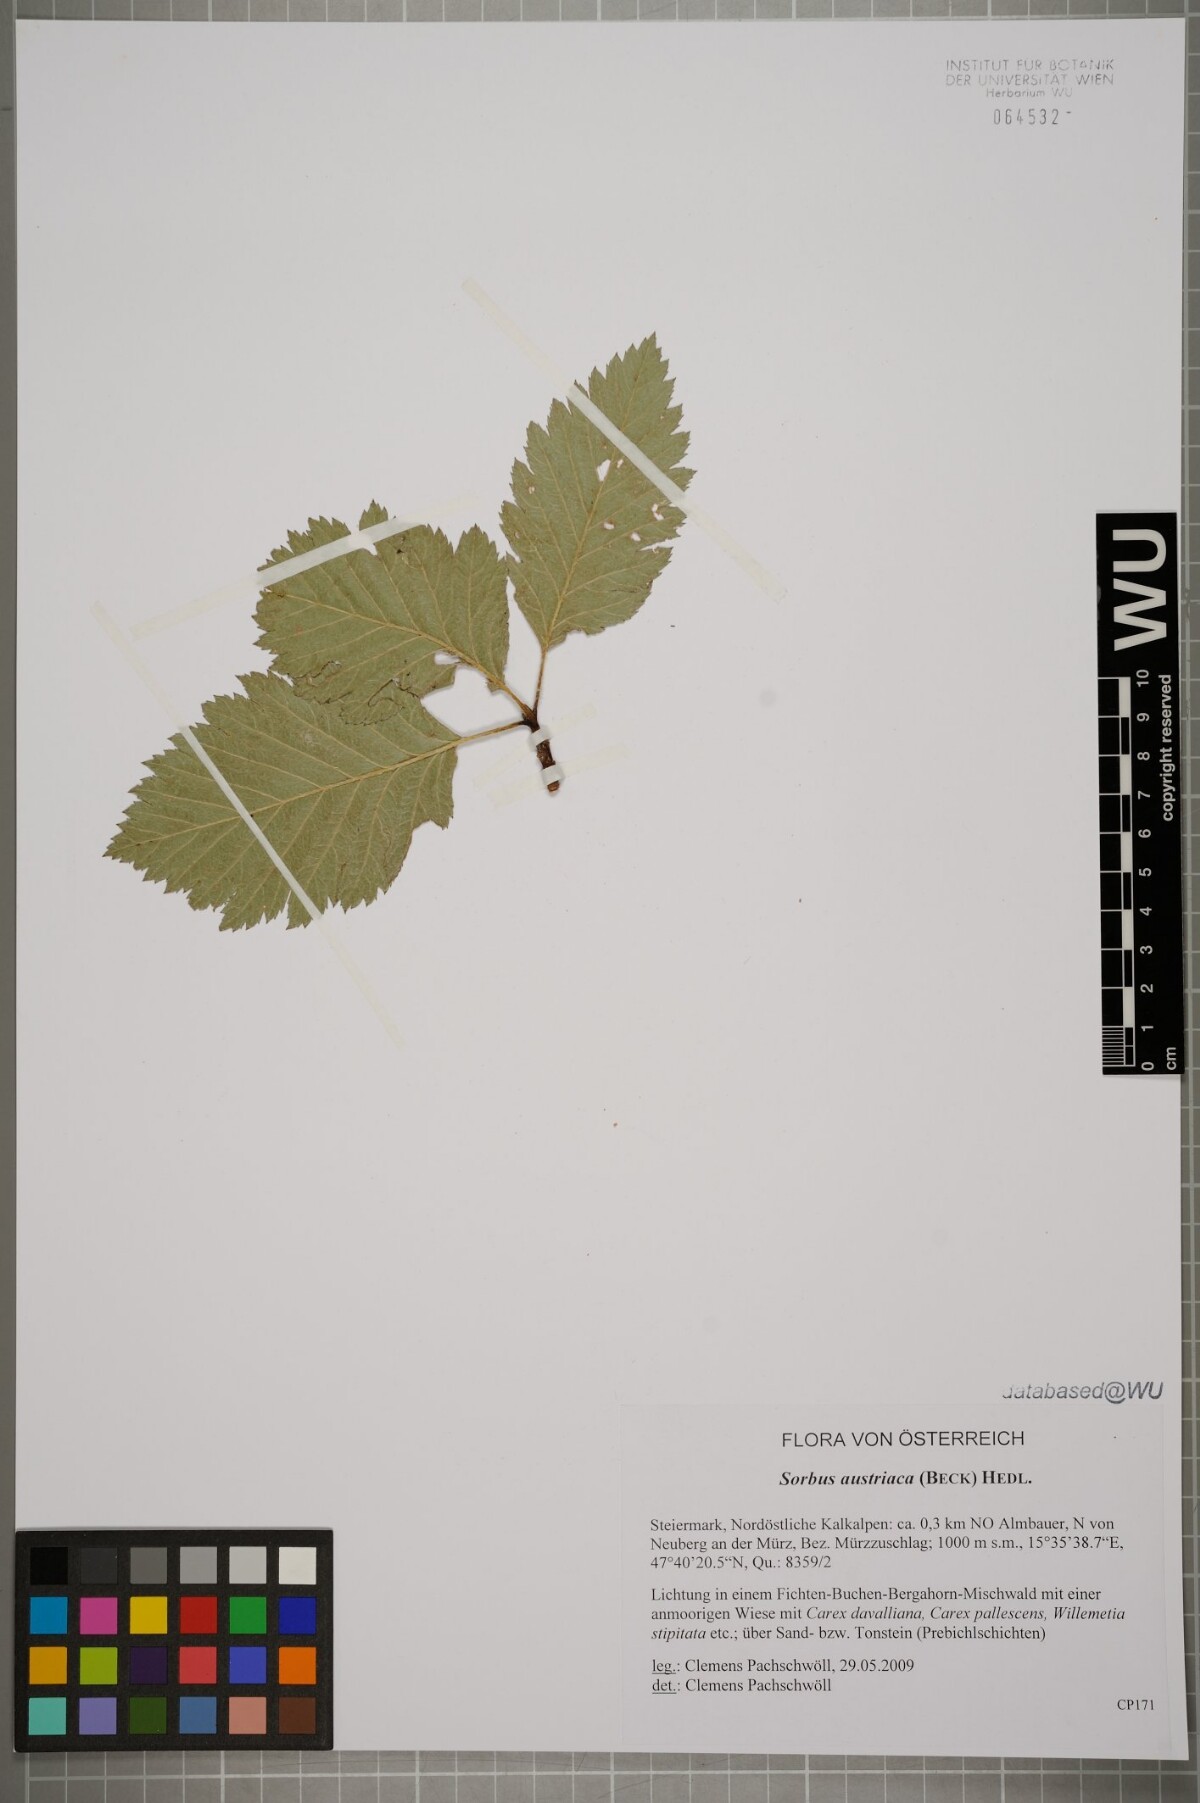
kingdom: Plantae
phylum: Tracheophyta
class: Magnoliopsida
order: Rosales
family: Rosaceae
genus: Aria
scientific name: Aria edulis
